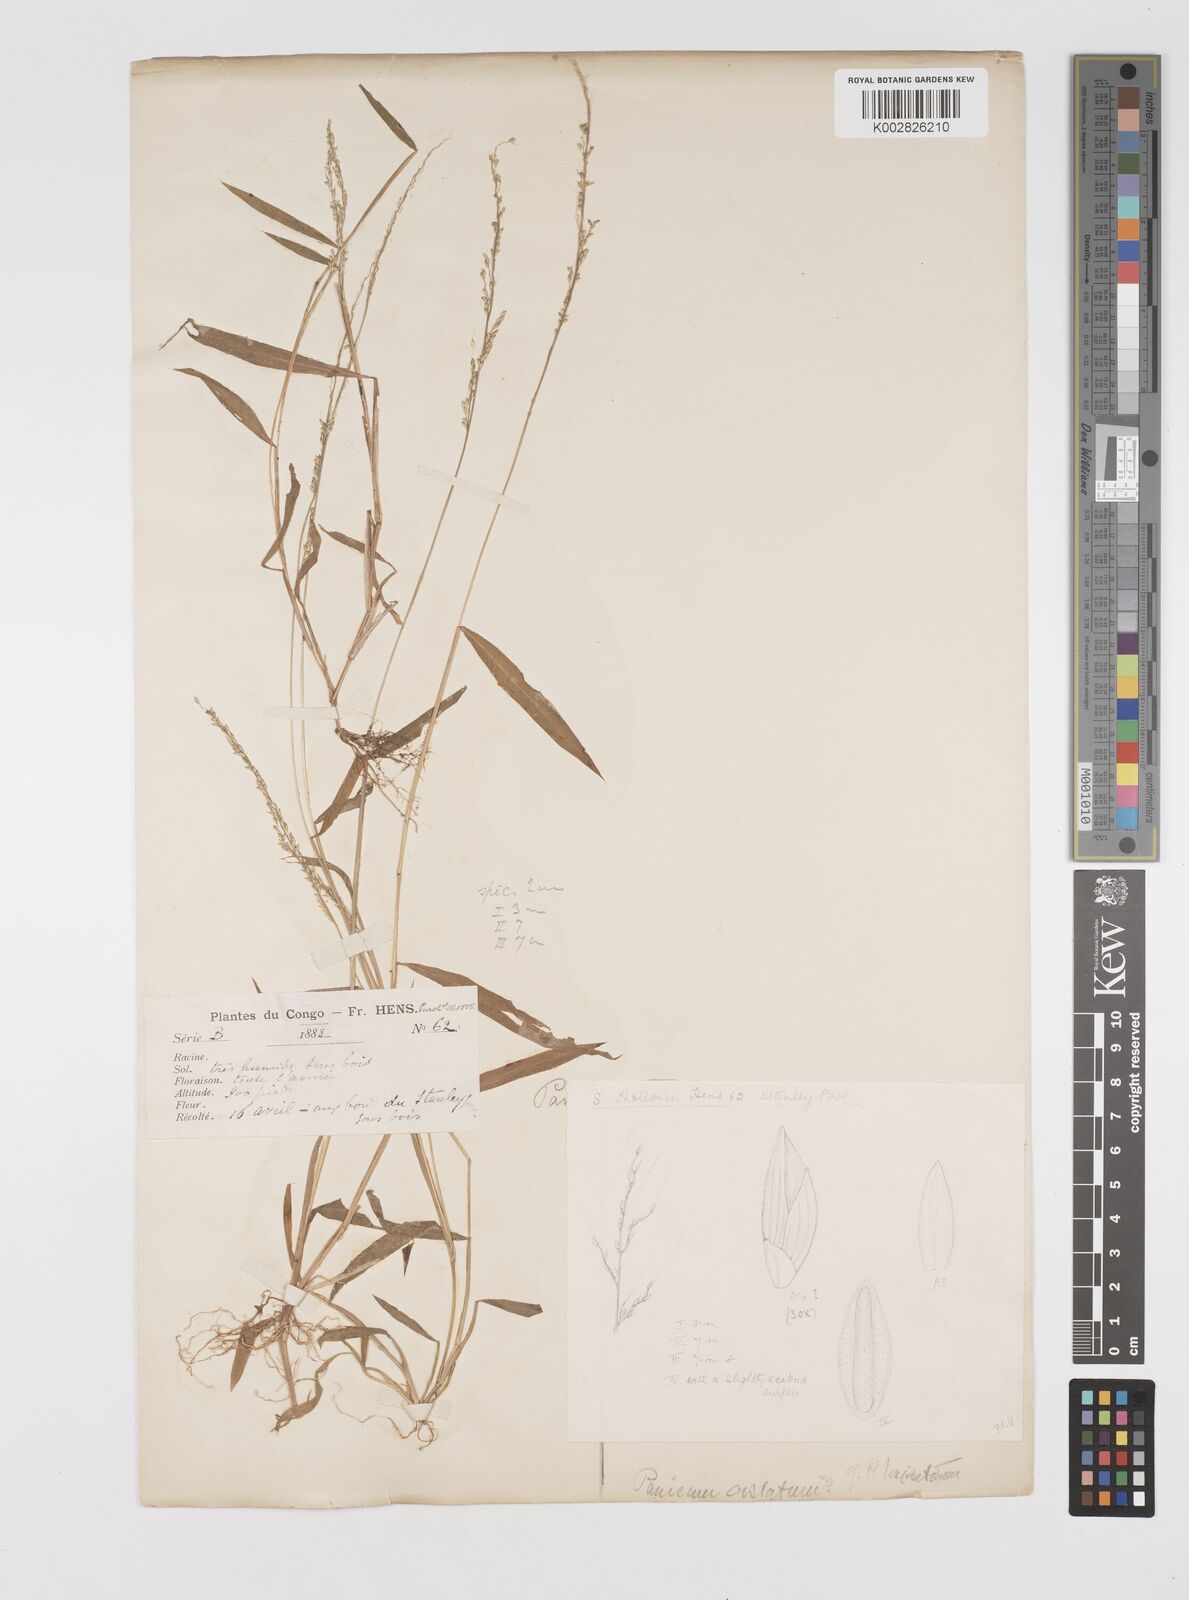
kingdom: Plantae
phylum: Tracheophyta
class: Liliopsida
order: Poales
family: Poaceae
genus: Setaria
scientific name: Setaria homonyma
